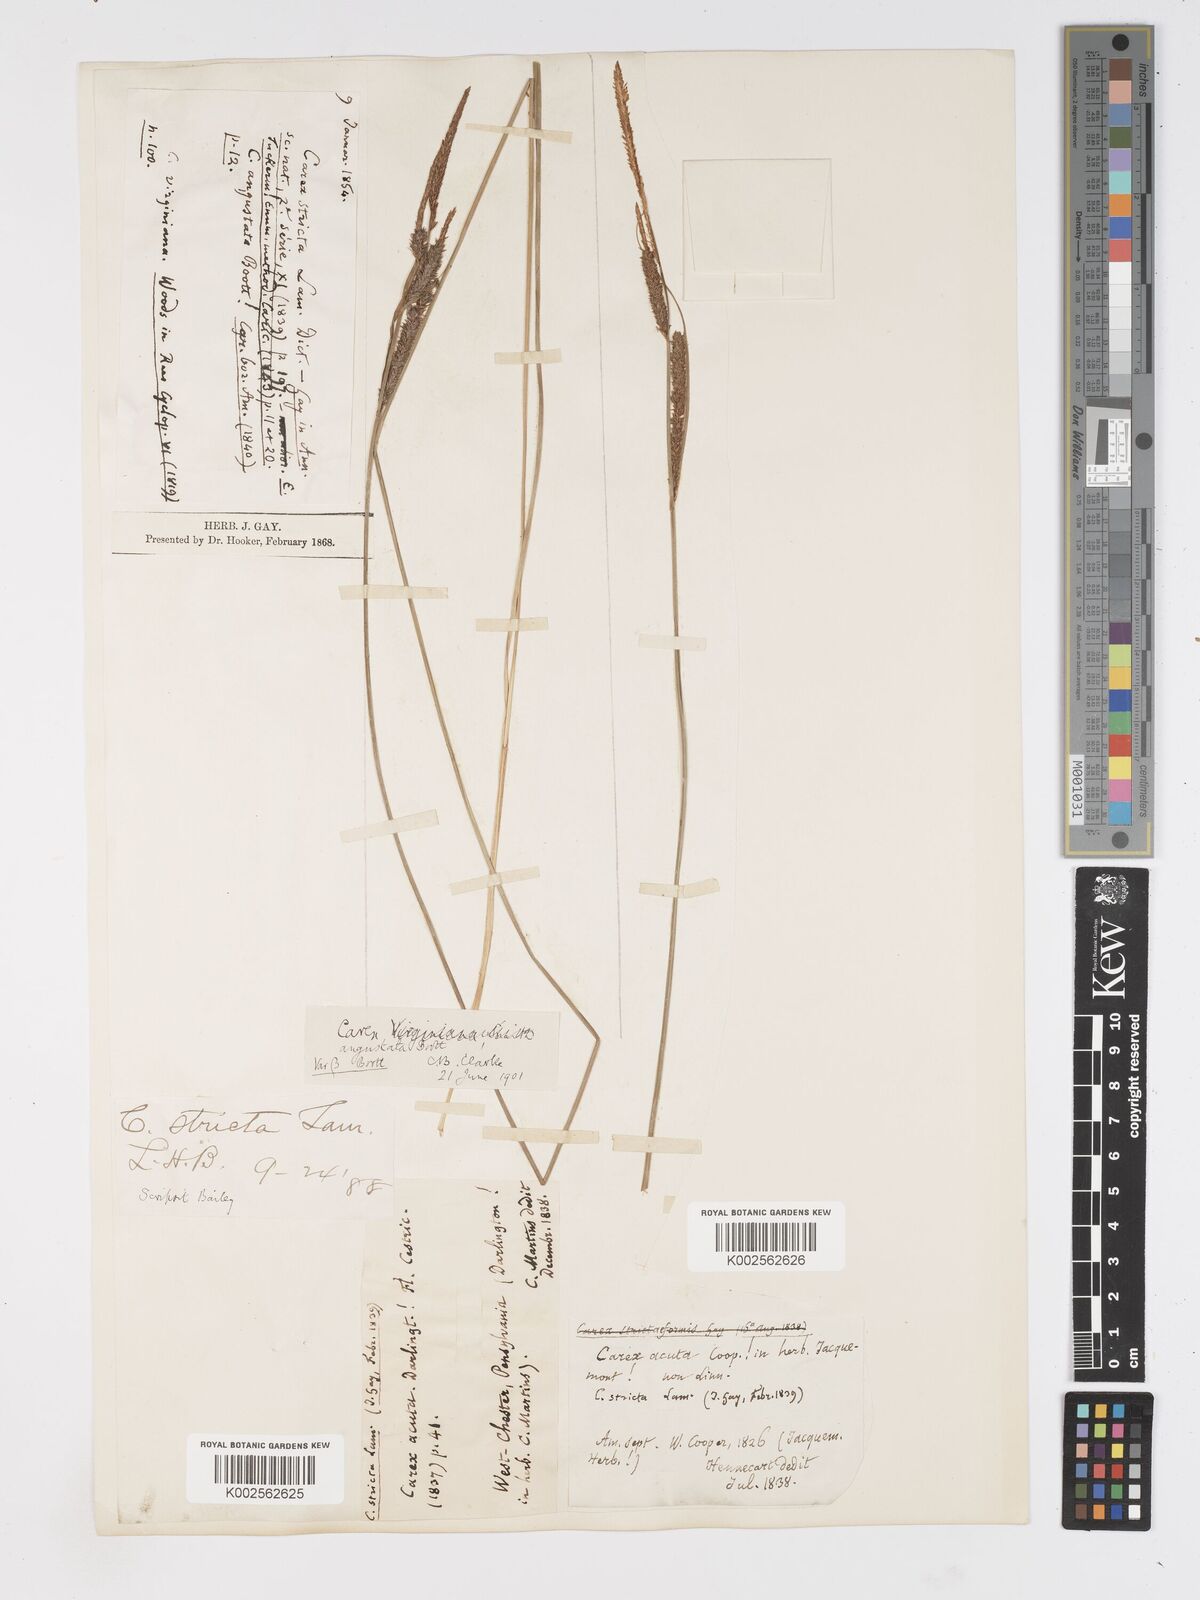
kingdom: Plantae
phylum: Tracheophyta
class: Liliopsida
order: Poales
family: Cyperaceae
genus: Carex
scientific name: Carex stricta
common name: Hummock sedge
